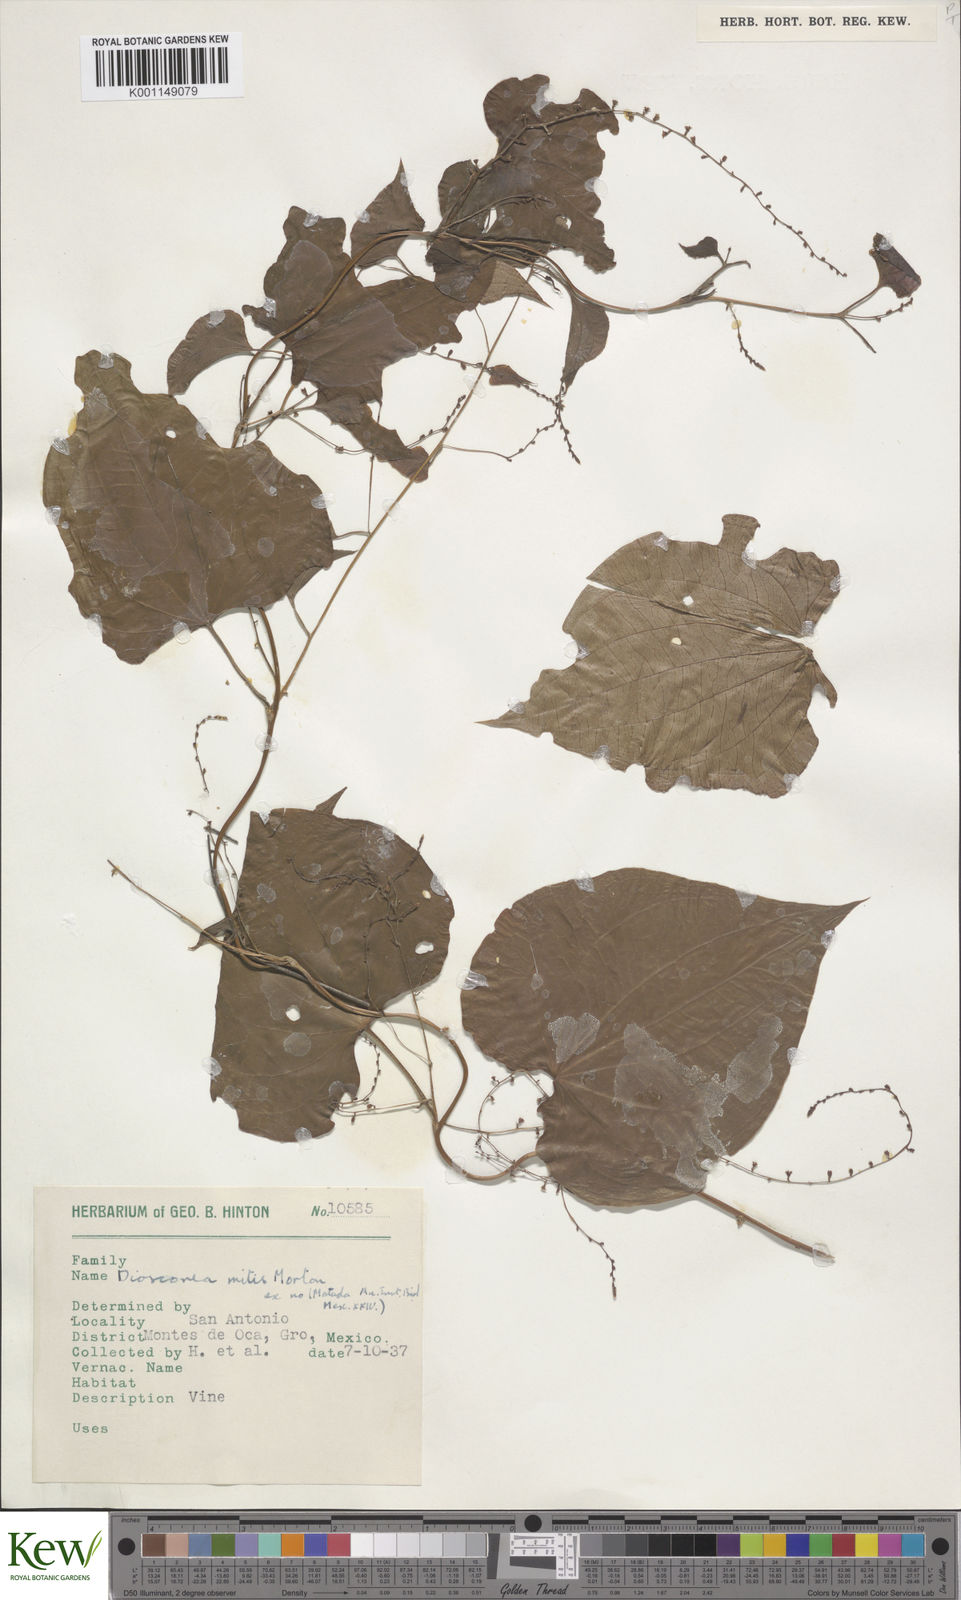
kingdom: Plantae
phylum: Tracheophyta
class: Liliopsida
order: Dioscoreales
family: Dioscoreaceae
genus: Dioscorea
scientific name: Dioscorea mitis
